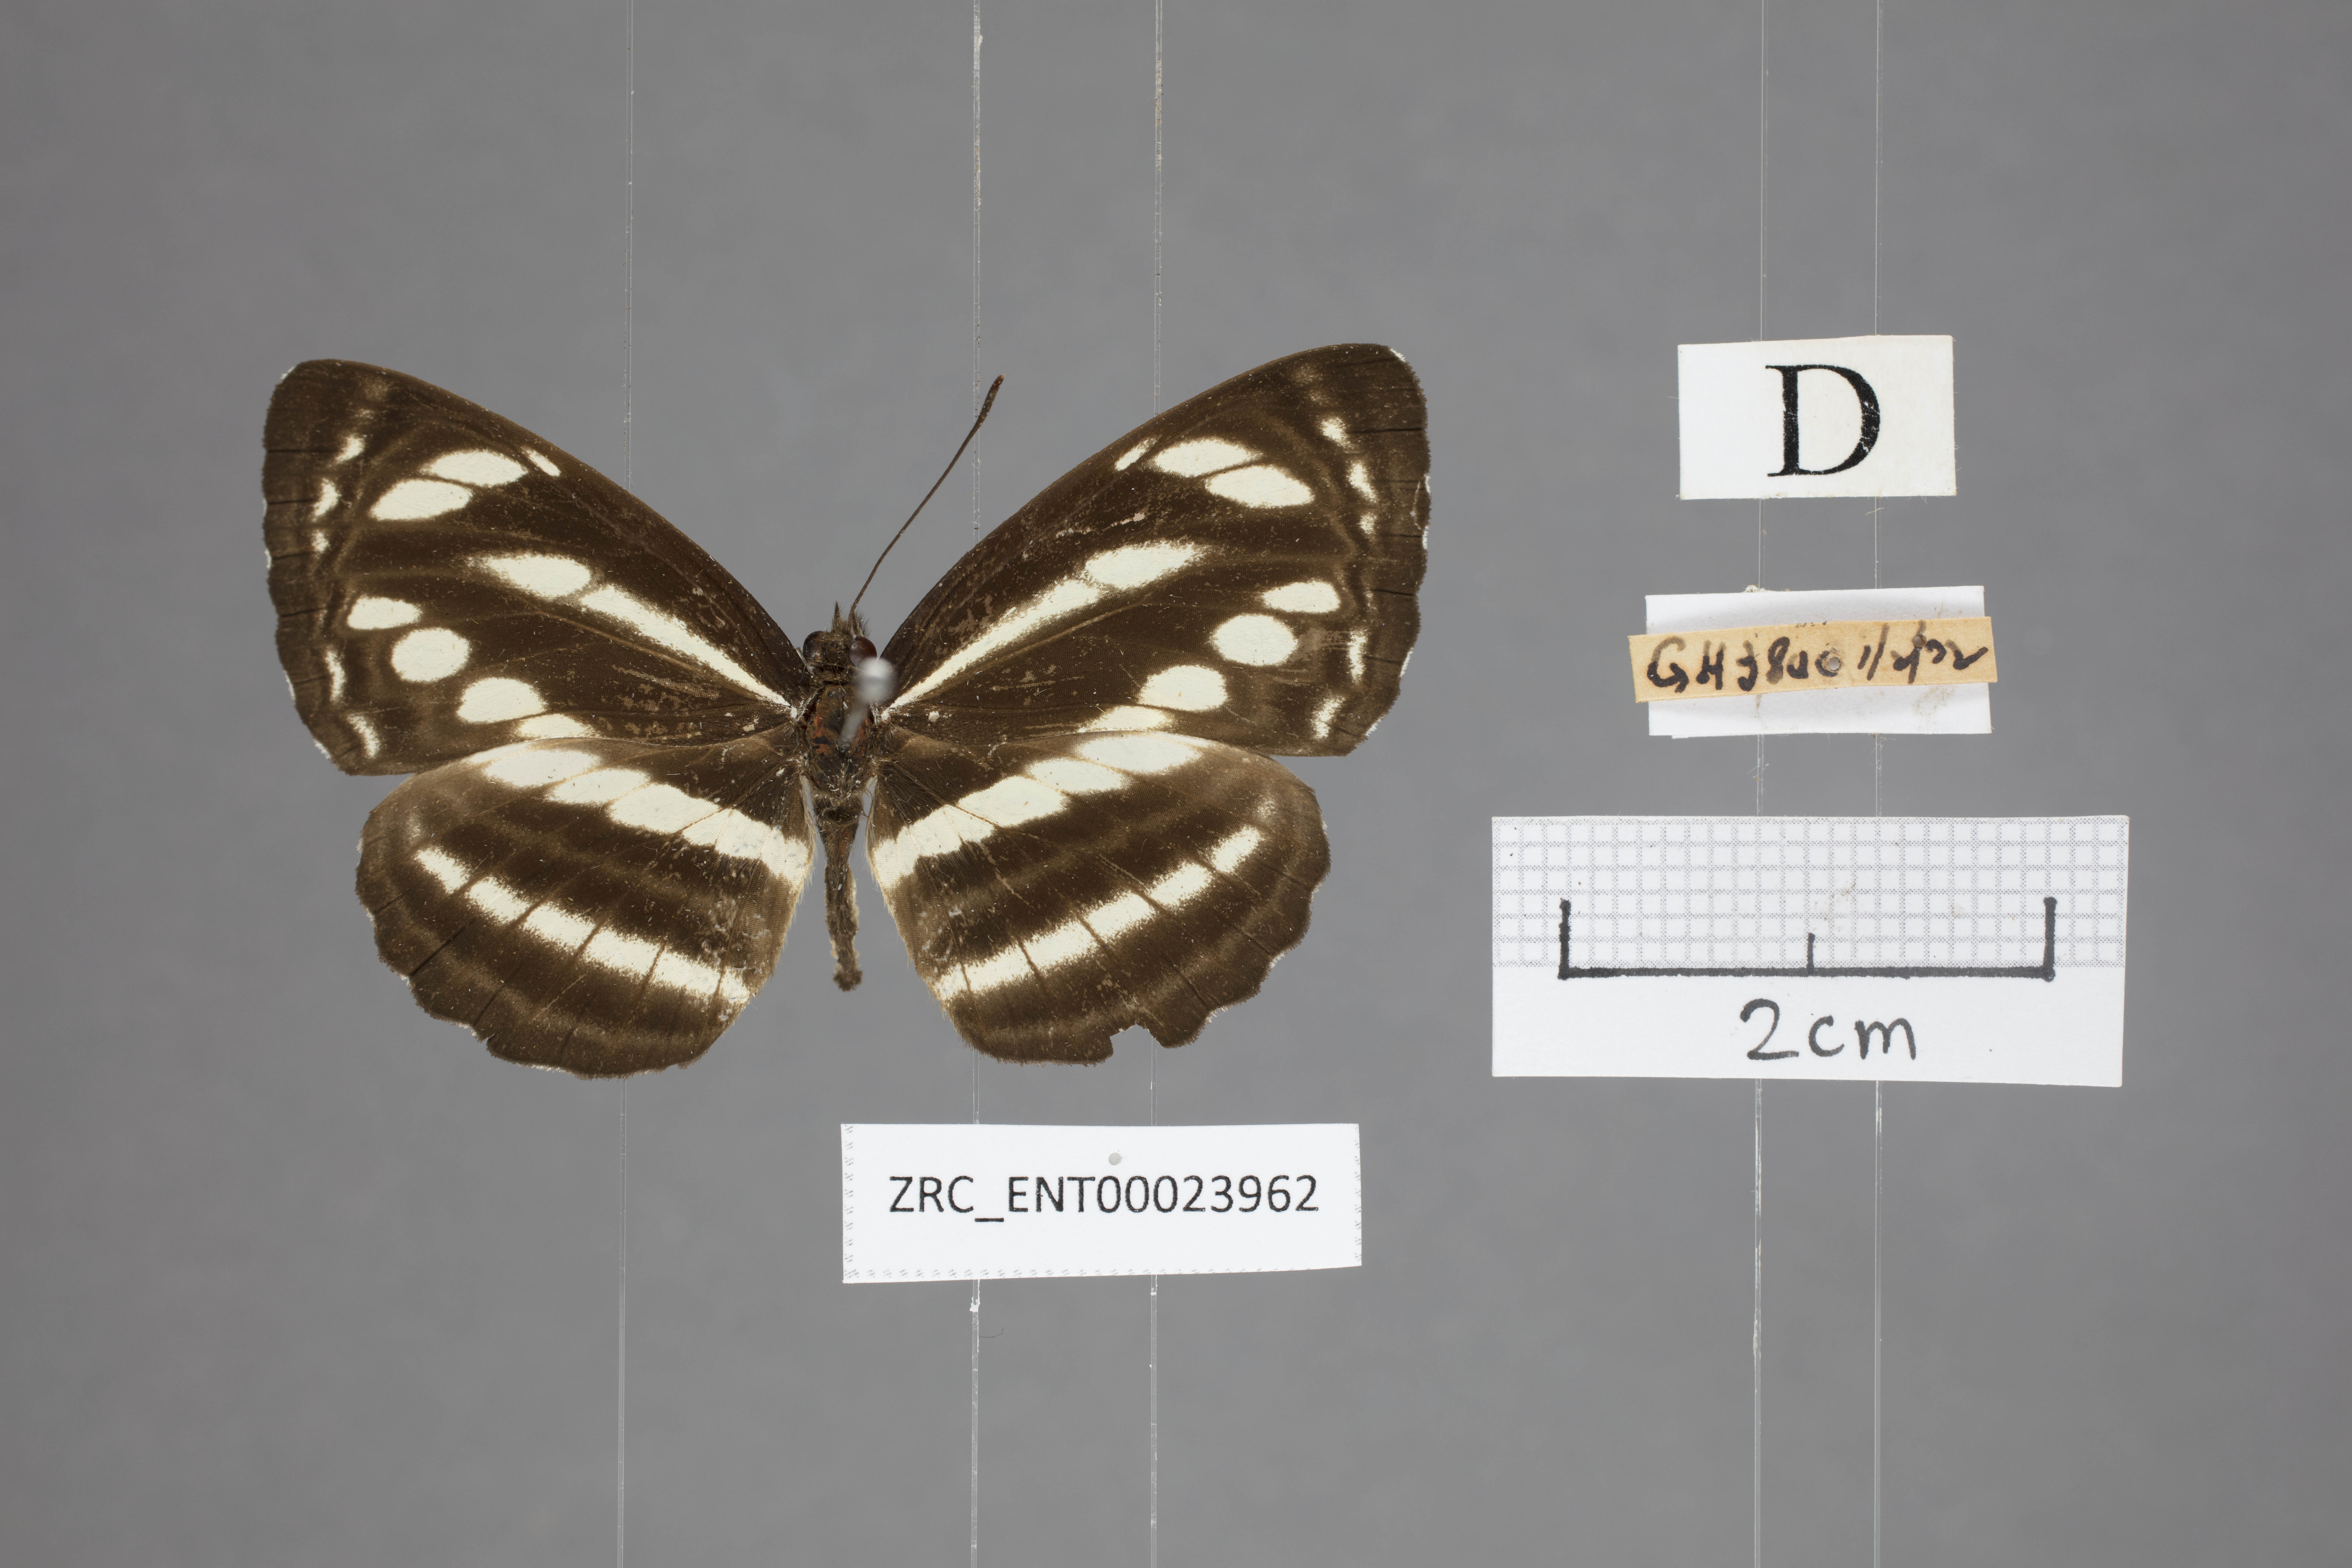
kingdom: Animalia
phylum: Arthropoda
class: Insecta
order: Lepidoptera
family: Nymphalidae
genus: Neptis
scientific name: Neptis clinioides
